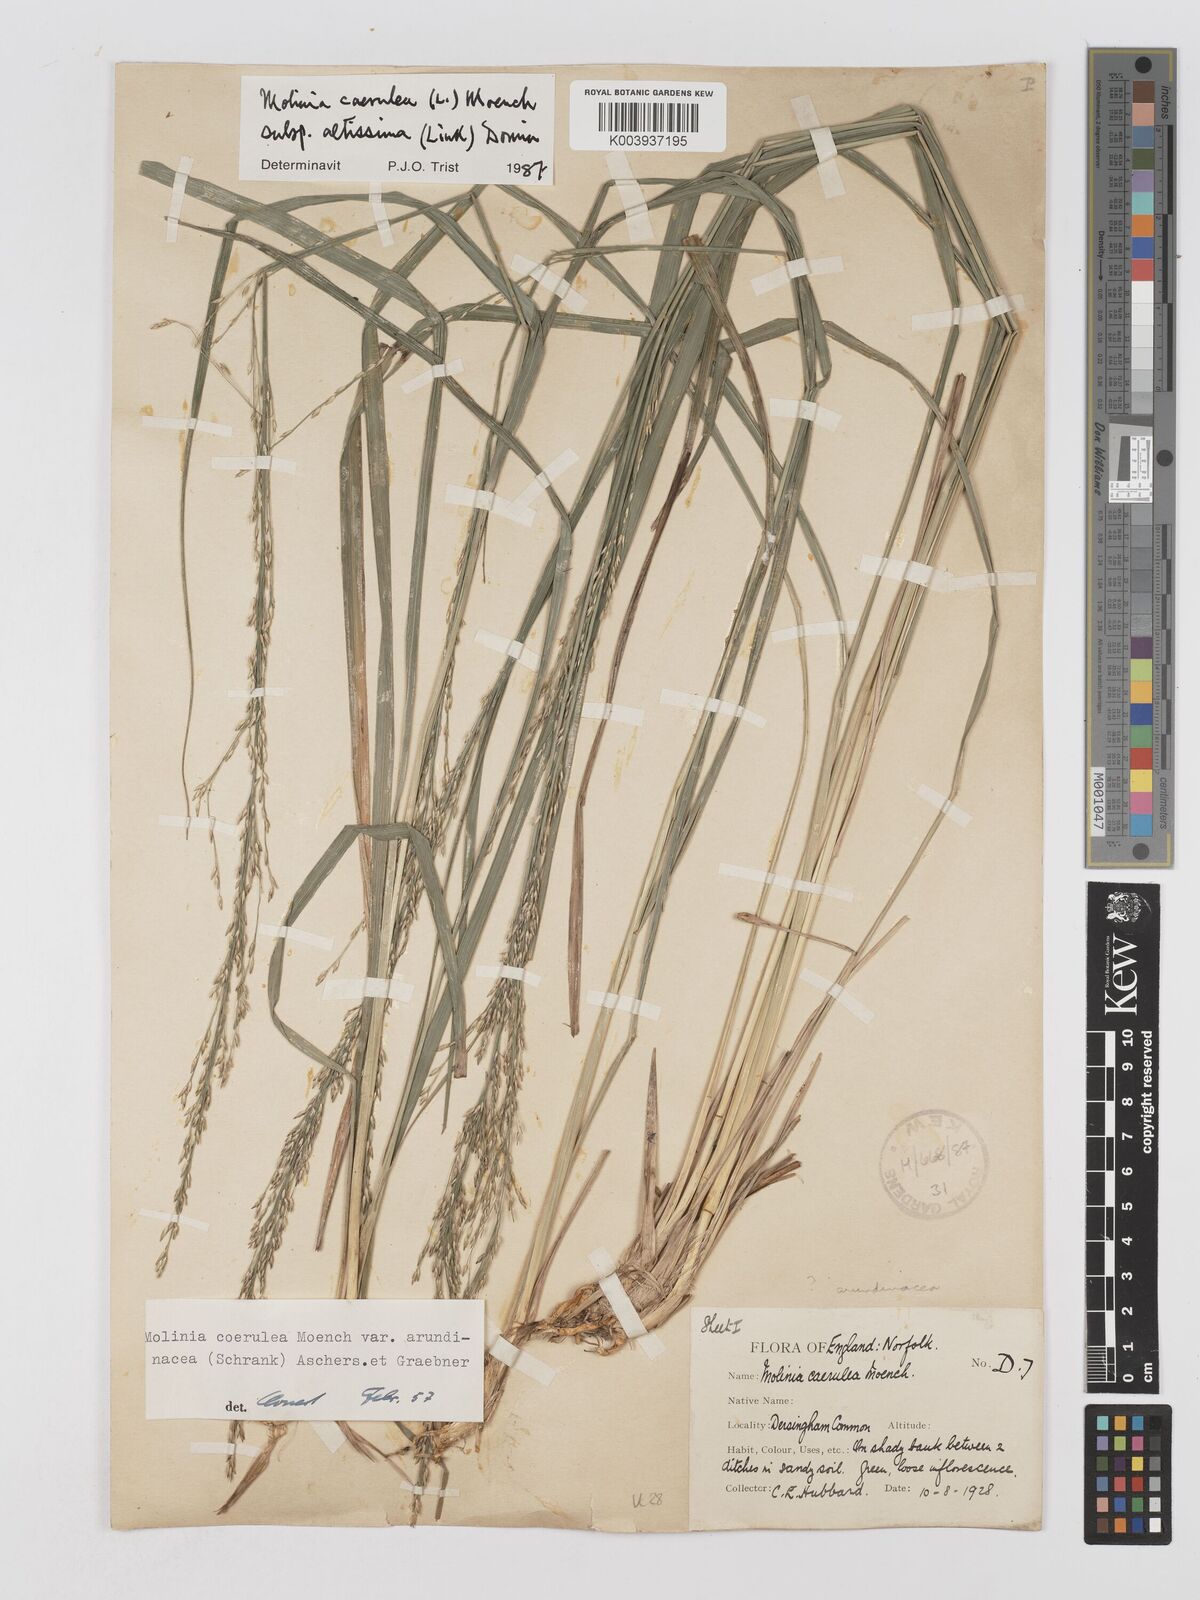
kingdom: Plantae
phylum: Tracheophyta
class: Liliopsida
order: Poales
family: Poaceae
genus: Molinia
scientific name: Molinia caerulea
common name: Purple moor-grass
